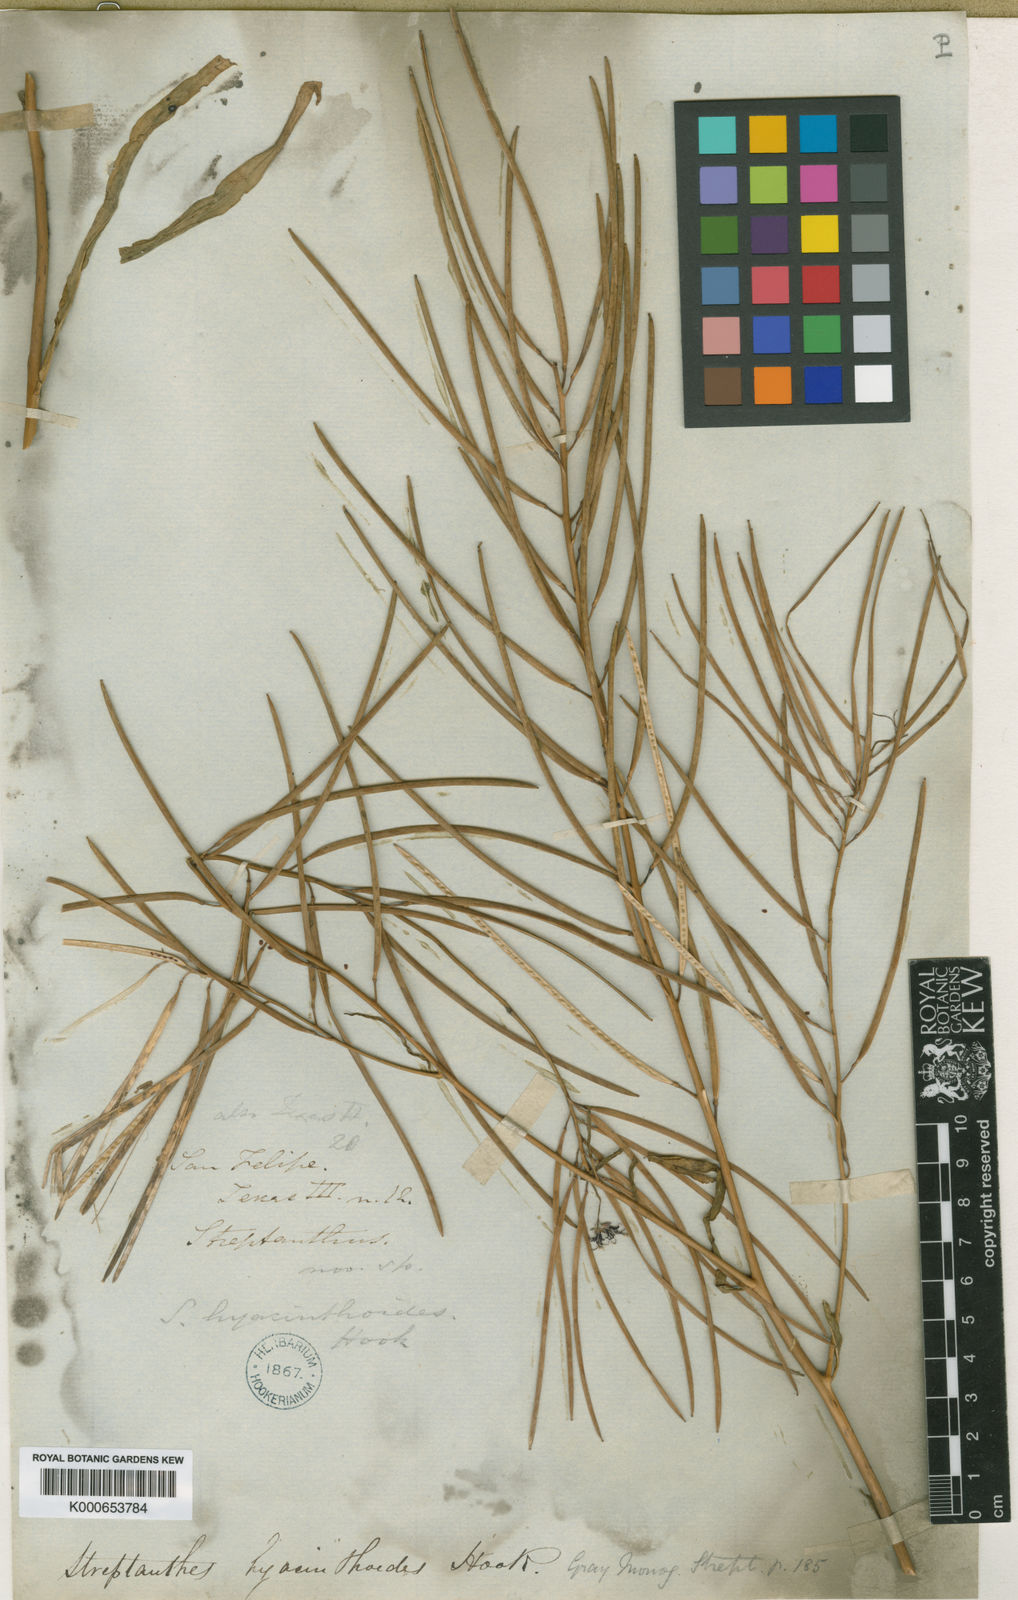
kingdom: Plantae
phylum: Tracheophyta
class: Magnoliopsida
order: Brassicales
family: Brassicaceae
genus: Streptanthus
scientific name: Streptanthus hyacinthoides
